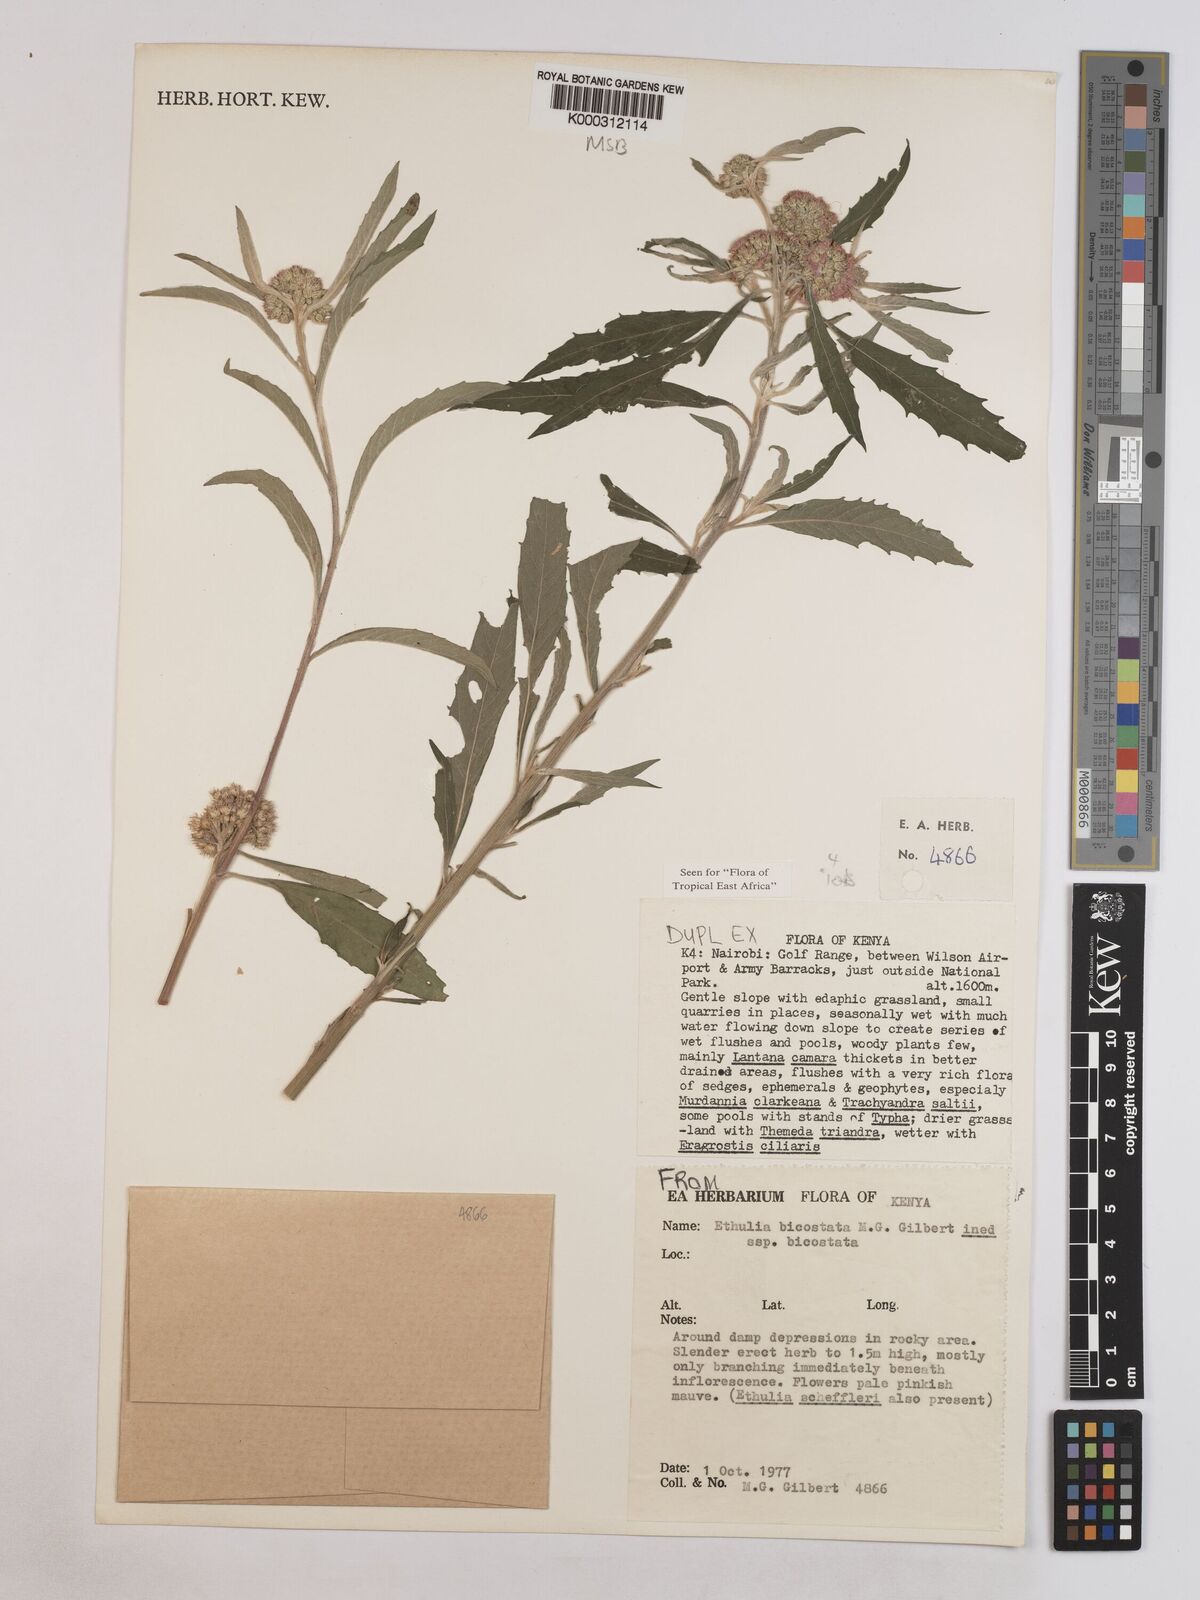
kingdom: Plantae
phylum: Tracheophyta
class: Magnoliopsida
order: Asterales
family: Asteraceae
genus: Ethulia
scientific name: Ethulia bicostata
